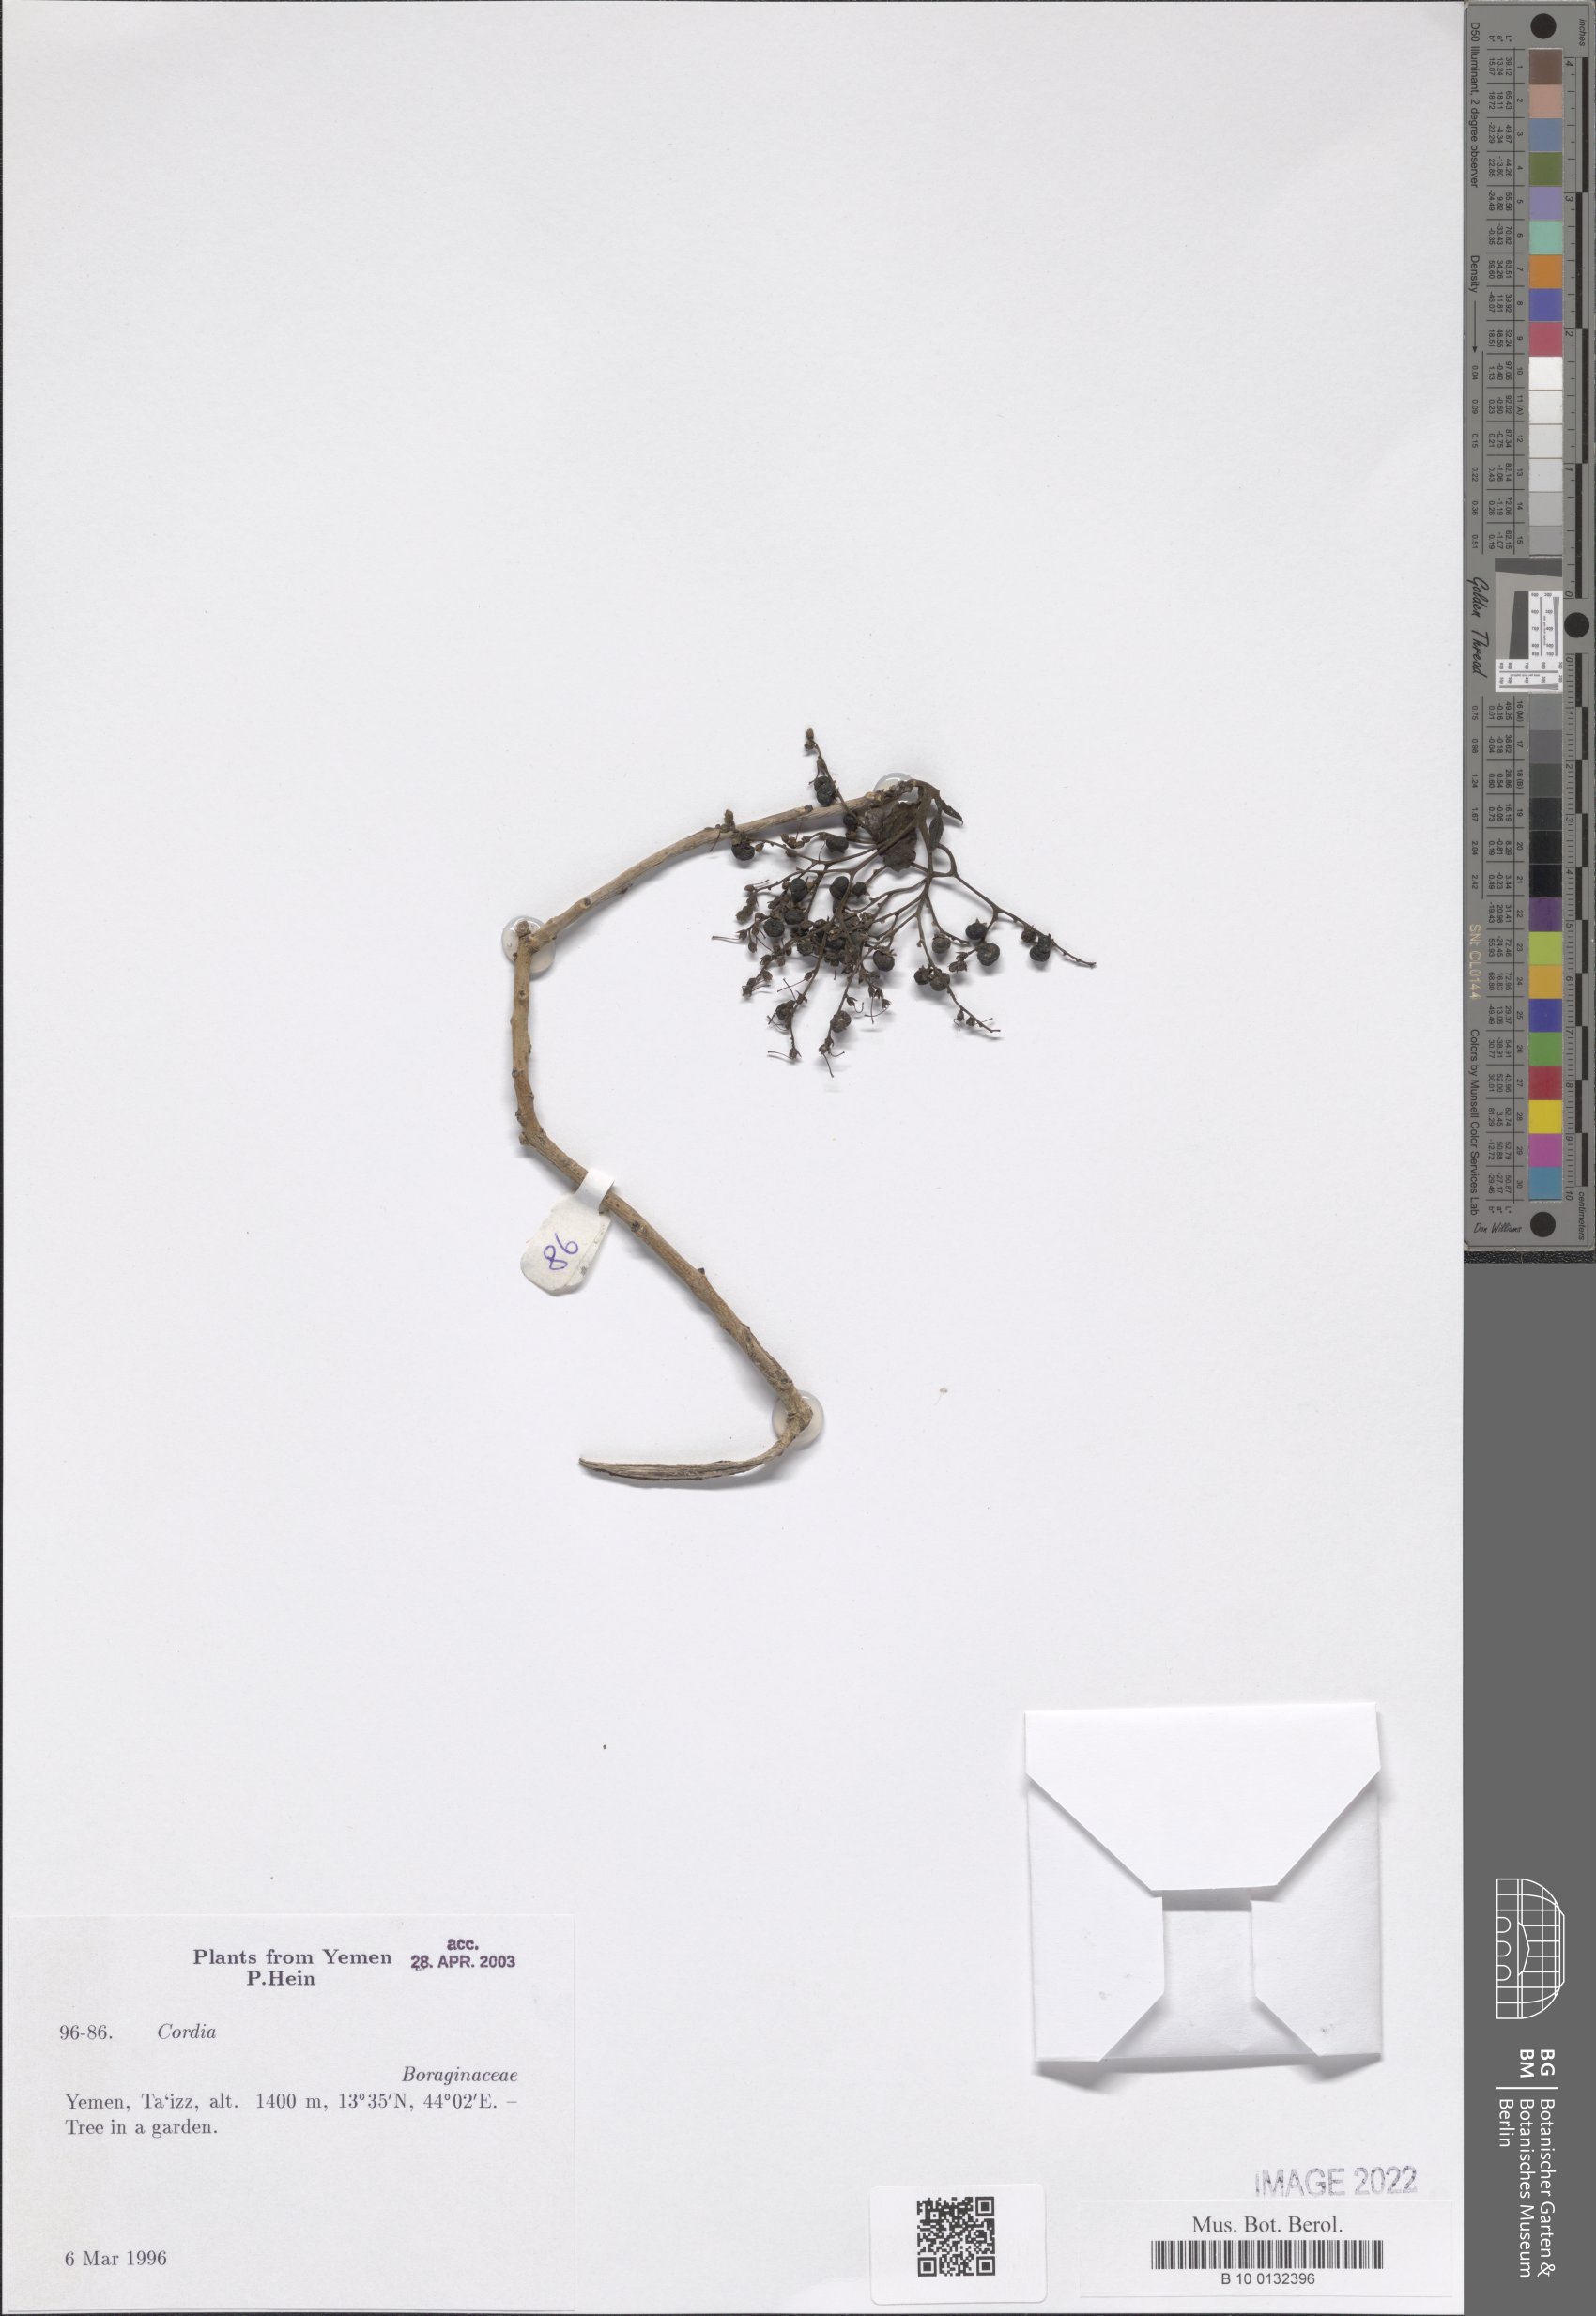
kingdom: Plantae
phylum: Tracheophyta
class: Magnoliopsida
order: Boraginales
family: Cordiaceae
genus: Cordia
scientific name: Cordia
